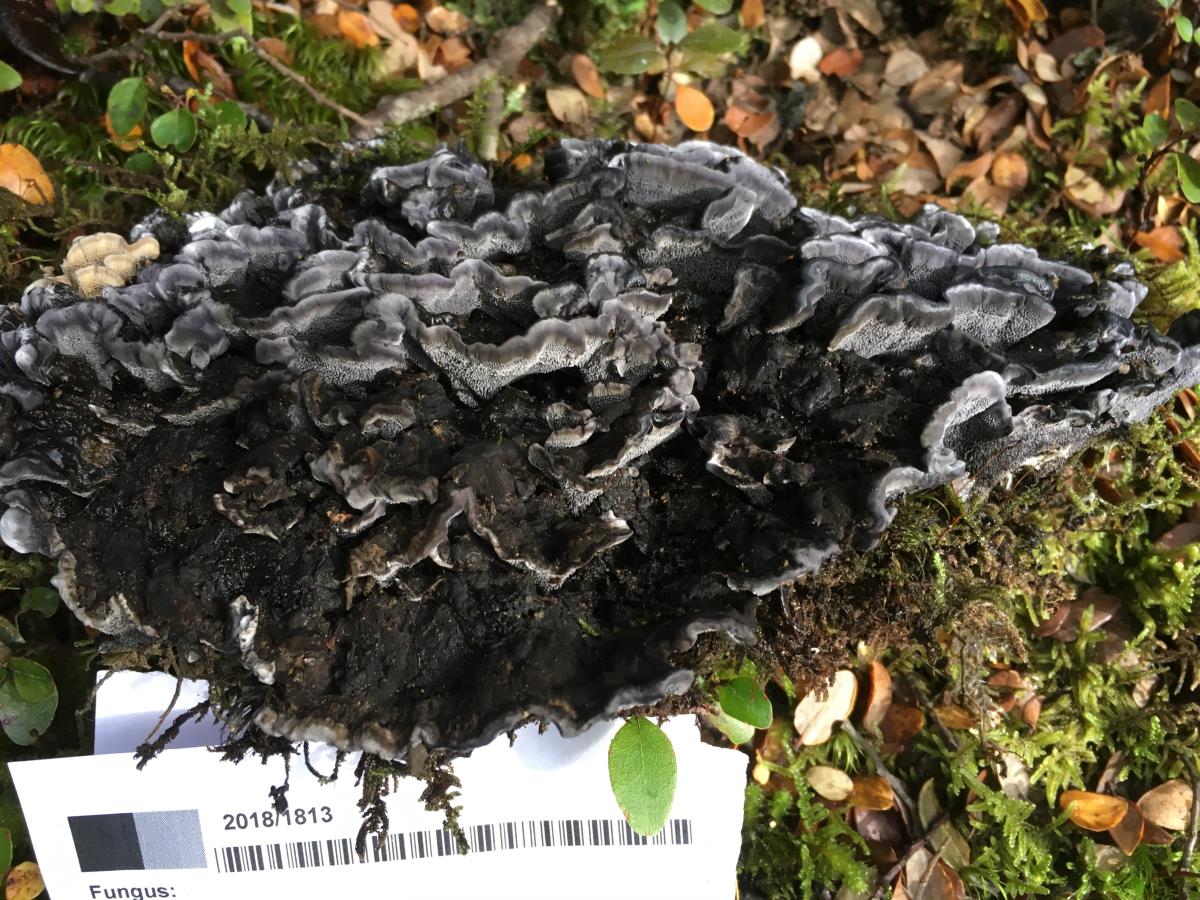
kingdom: Fungi
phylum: Basidiomycota
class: Agaricomycetes
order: Thelephorales
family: Thelephoraceae
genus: Phellodon
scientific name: Phellodon sinclairii
